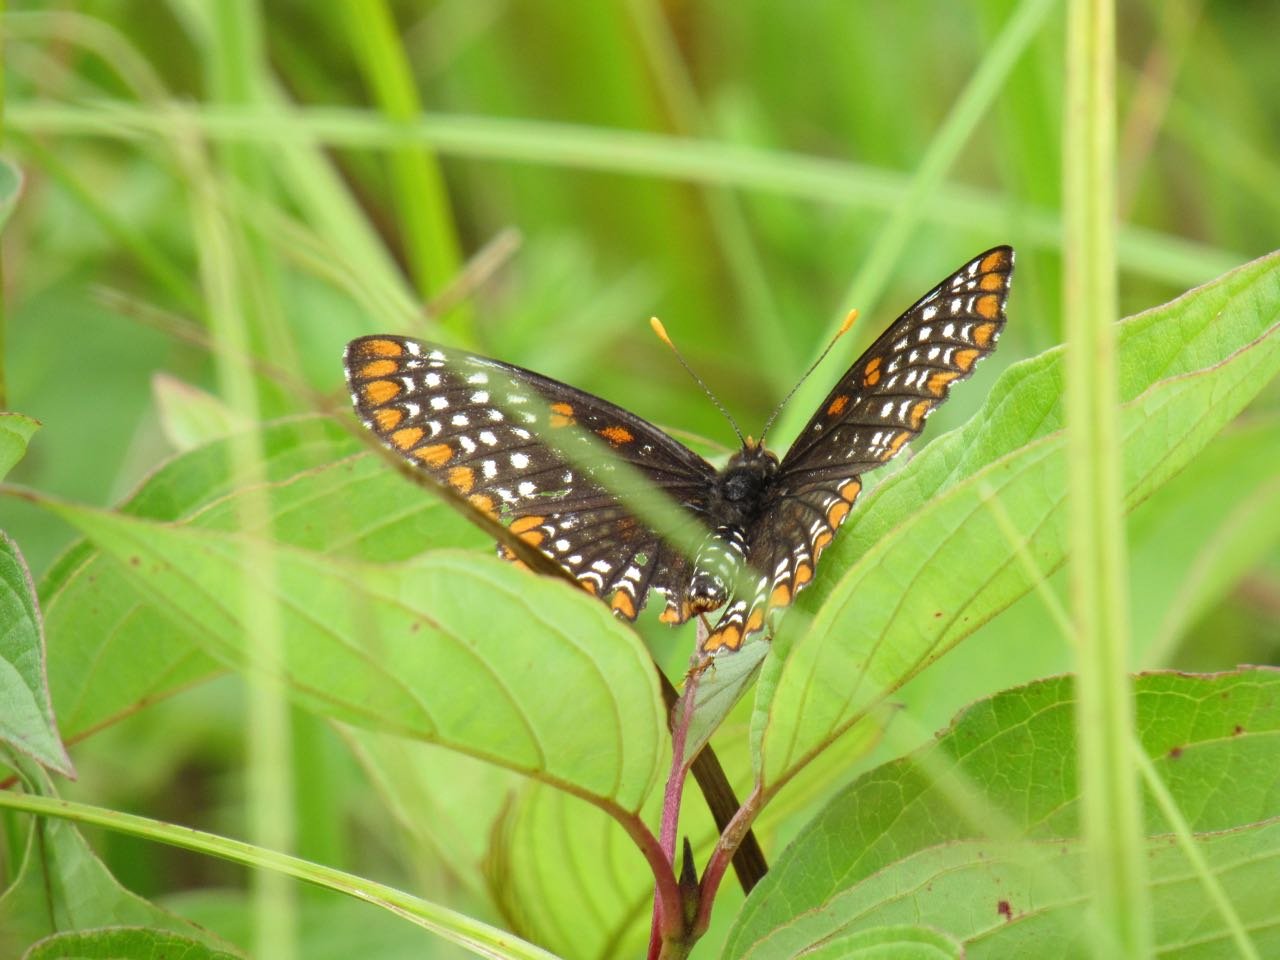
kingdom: Animalia
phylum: Arthropoda
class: Insecta
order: Lepidoptera
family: Nymphalidae
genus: Euphydryas
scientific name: Euphydryas phaeton
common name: Baltimore Checkerspot
